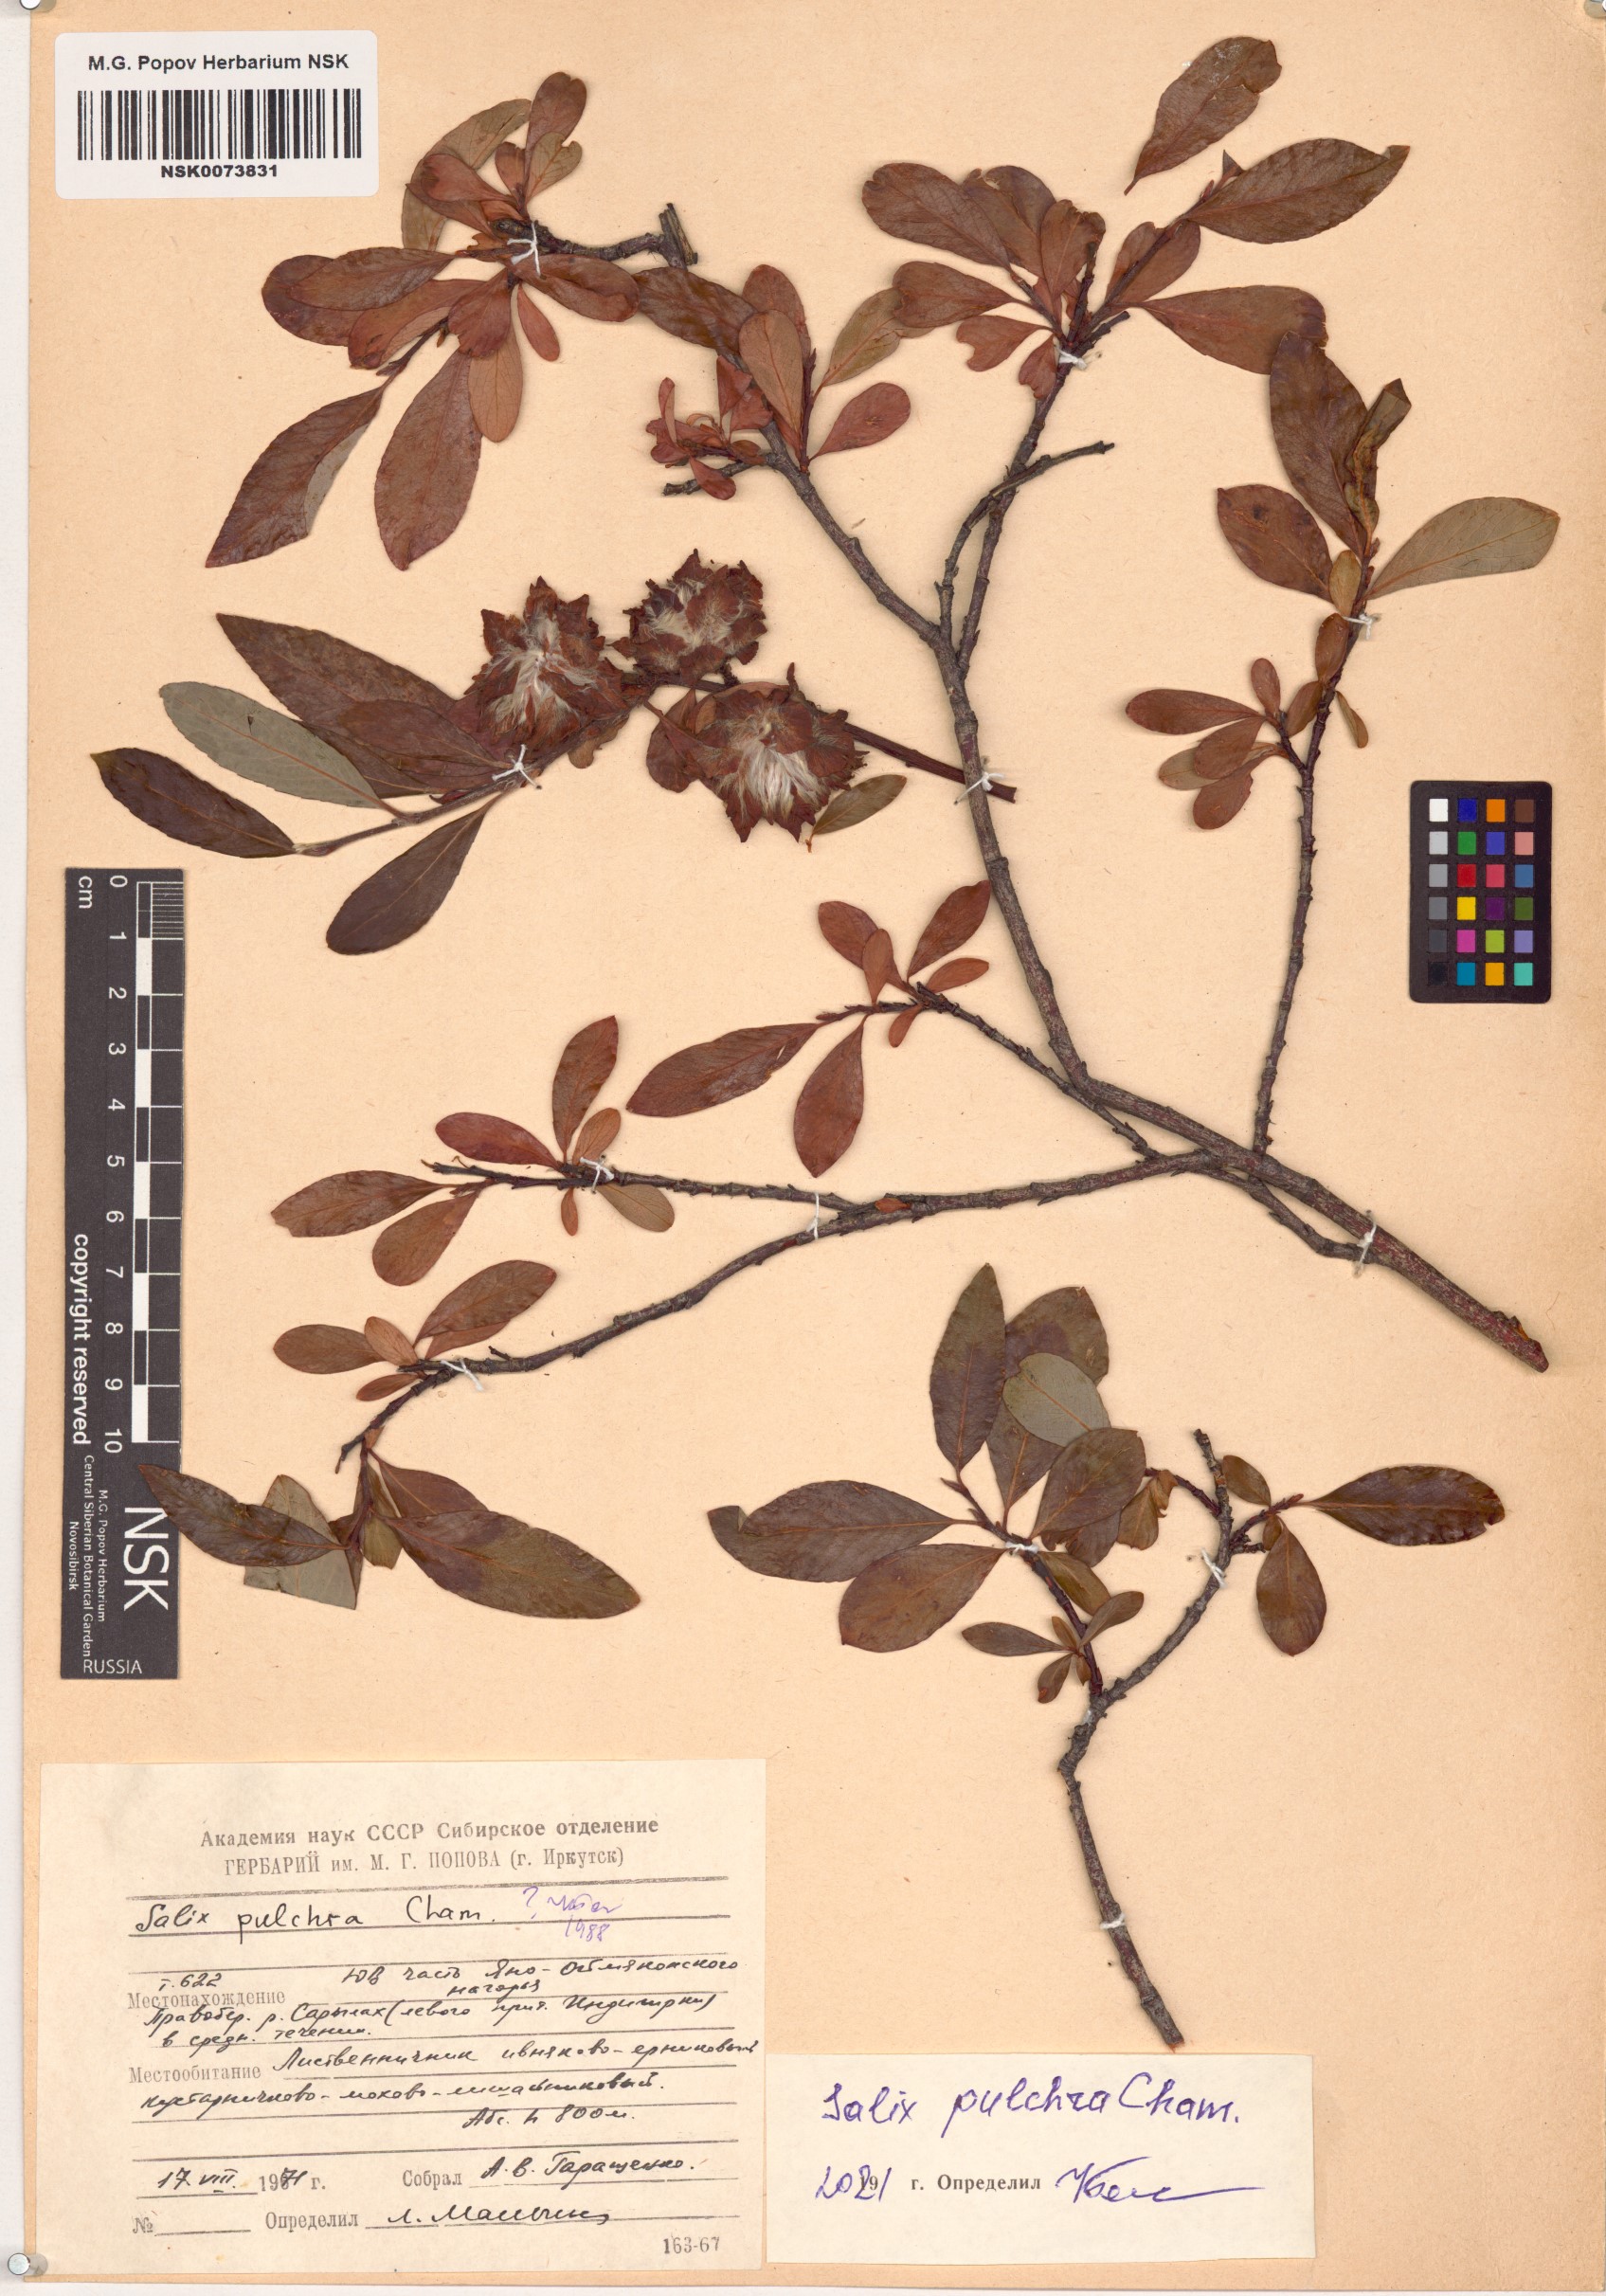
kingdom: Plantae
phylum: Tracheophyta
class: Magnoliopsida
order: Malpighiales
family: Salicaceae
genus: Salix
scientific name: Salix pulchra
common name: Diamond-leaved willow
